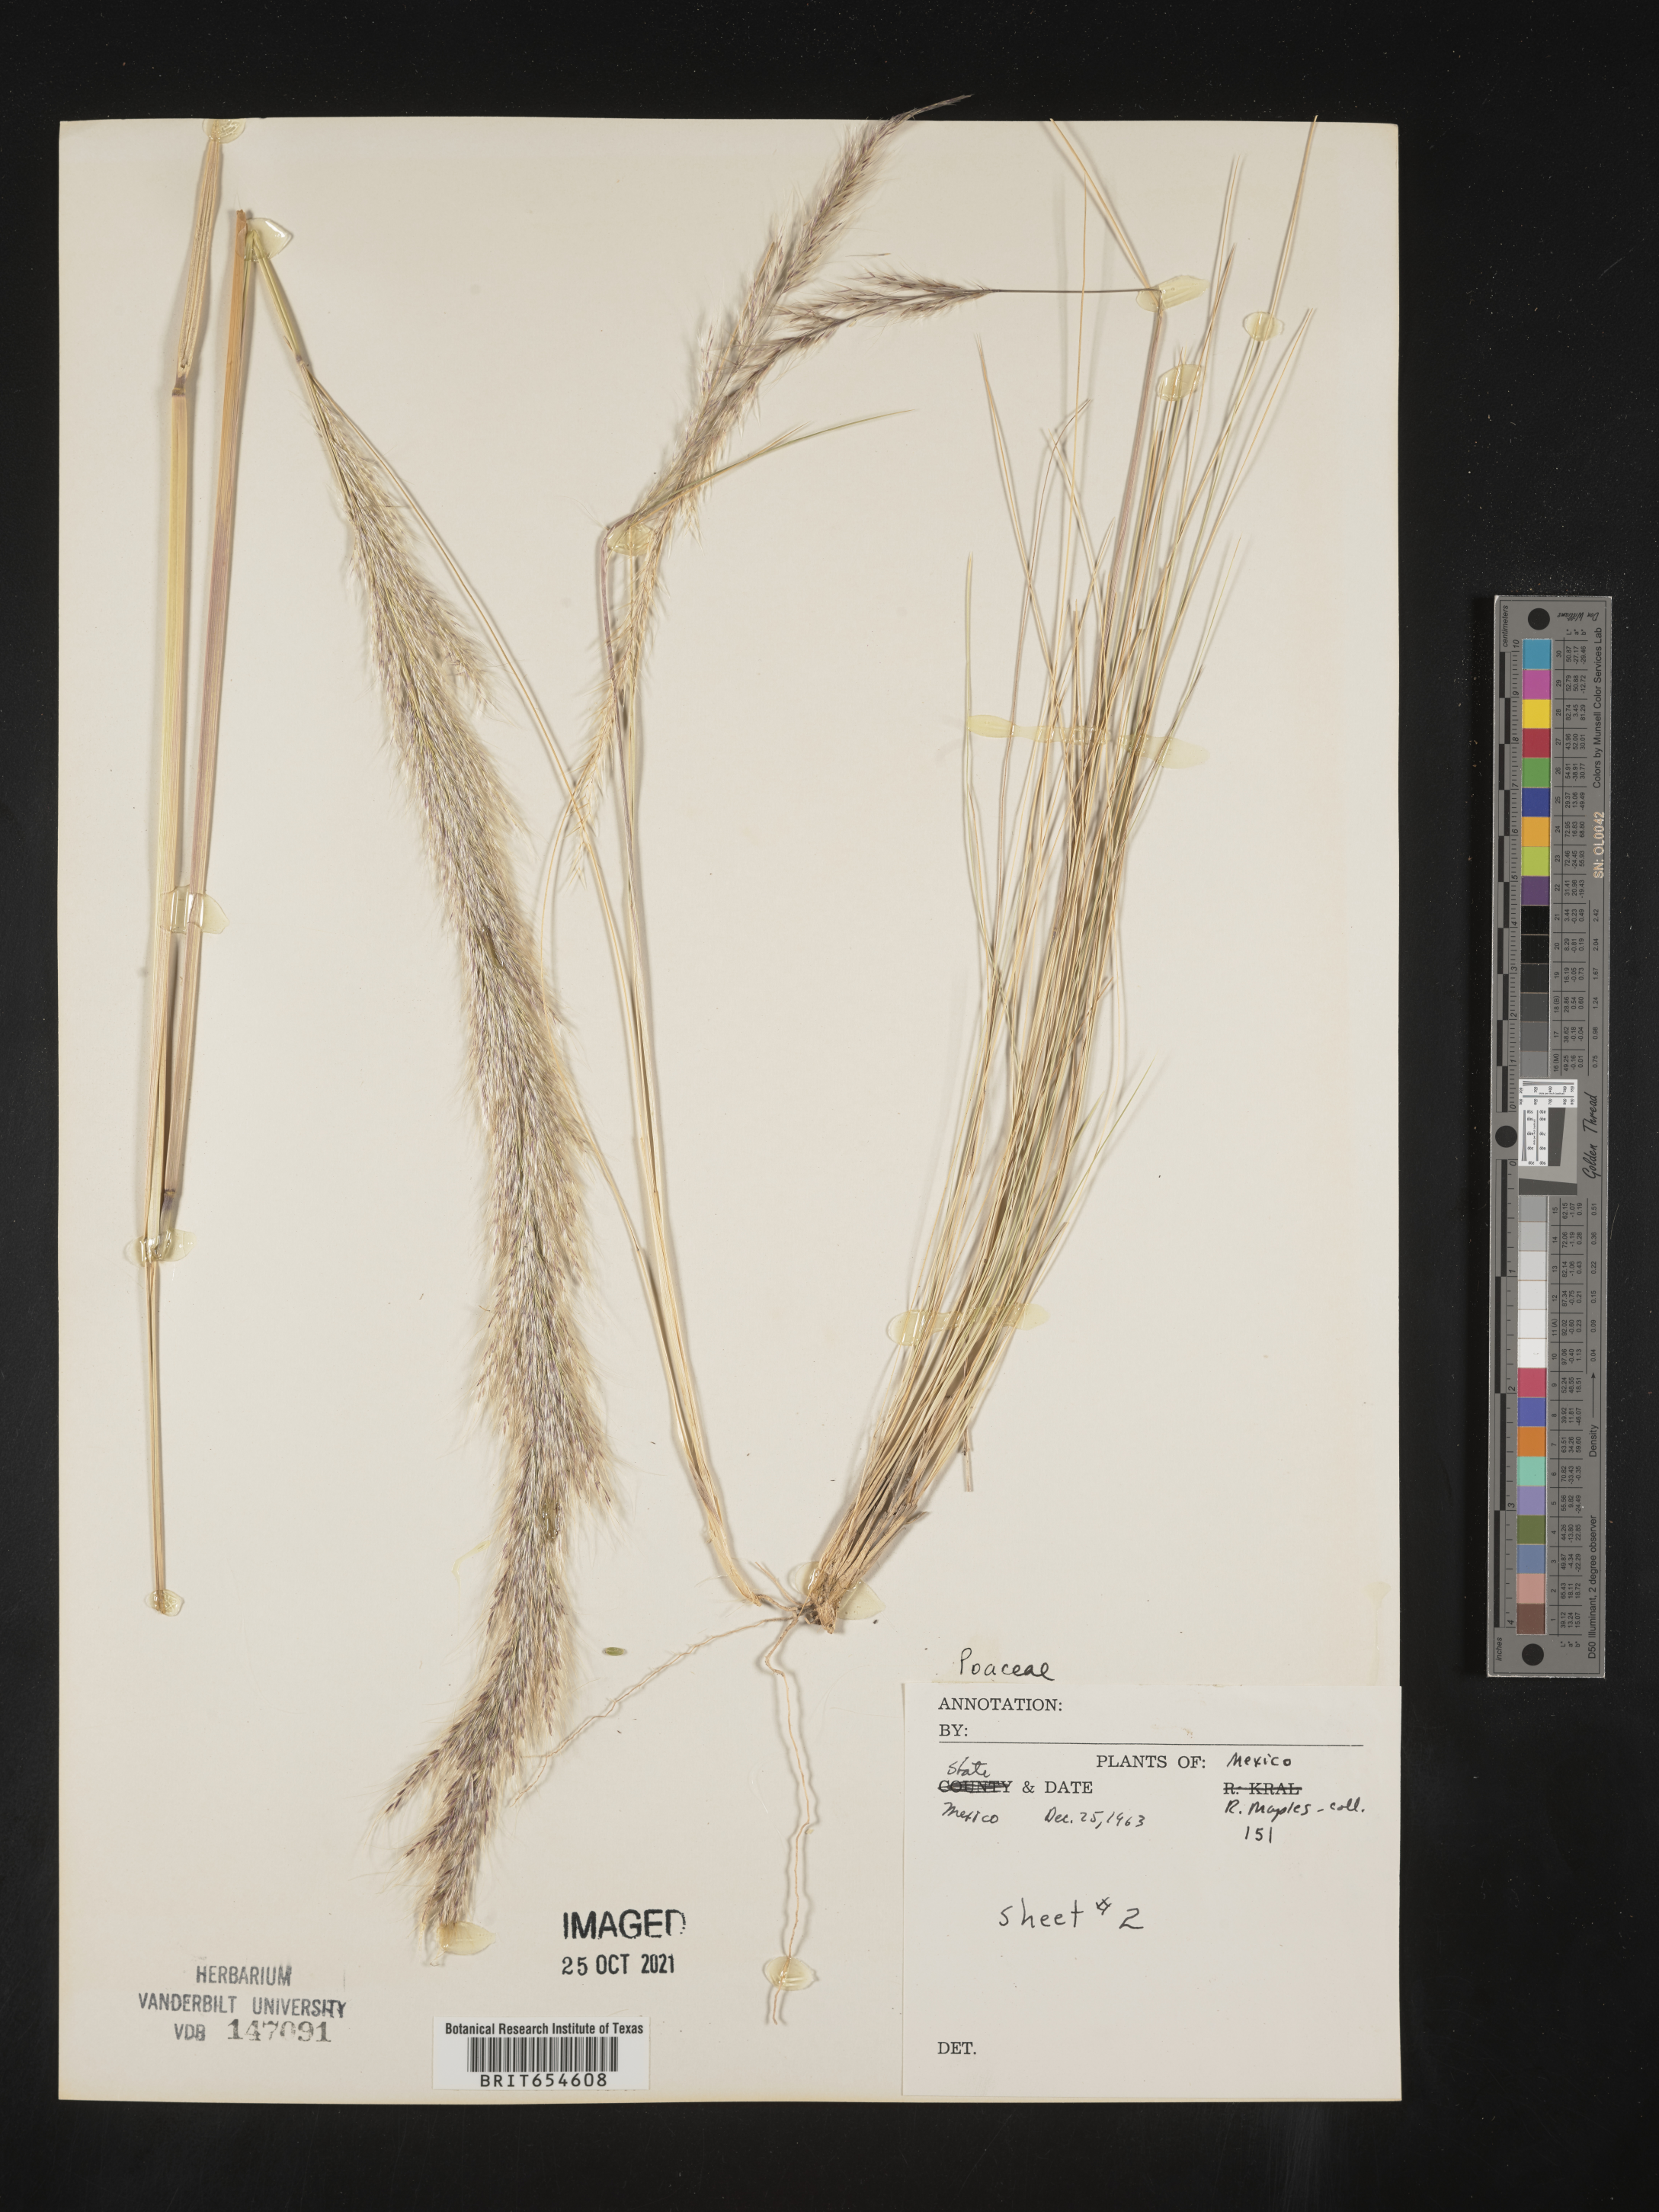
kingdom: Plantae
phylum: Tracheophyta
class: Liliopsida
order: Poales
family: Poaceae
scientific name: Poaceae
